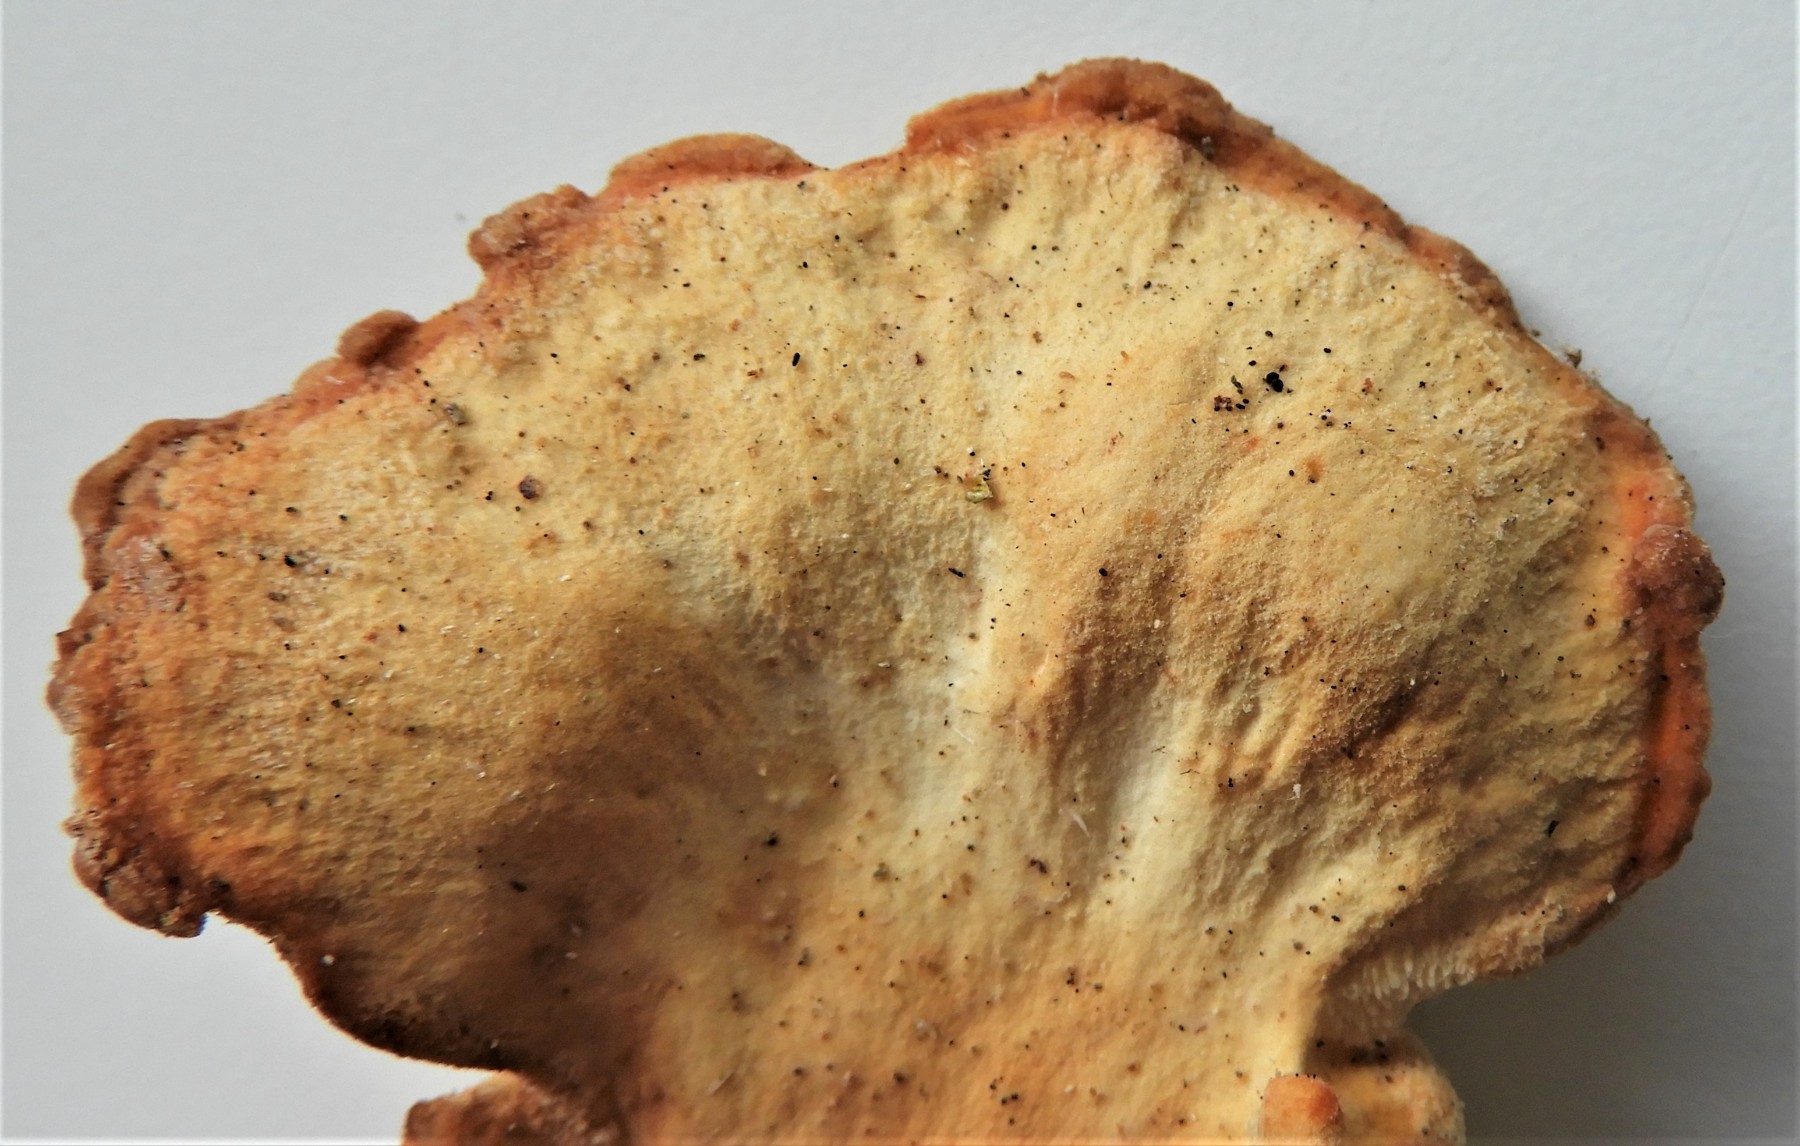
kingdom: Fungi
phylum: Basidiomycota
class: Agaricomycetes
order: Polyporales
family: Laetiporaceae
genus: Laetiporus
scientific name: Laetiporus sulphureus
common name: svovlporesvamp
